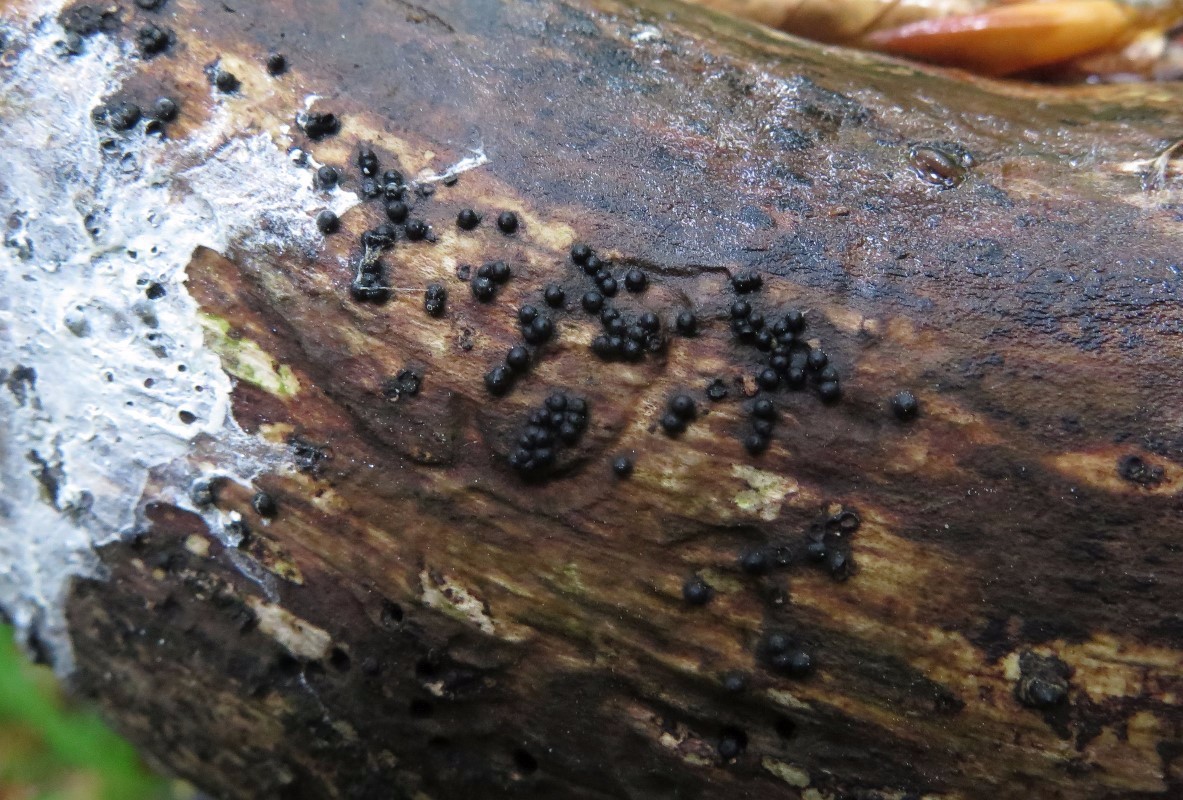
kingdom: Fungi
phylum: Ascomycota
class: Sordariomycetes
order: Xylariales
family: Xylariaceae
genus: Rosellinia
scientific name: Rosellinia marcucciana
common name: måtteløs kulkaviar
